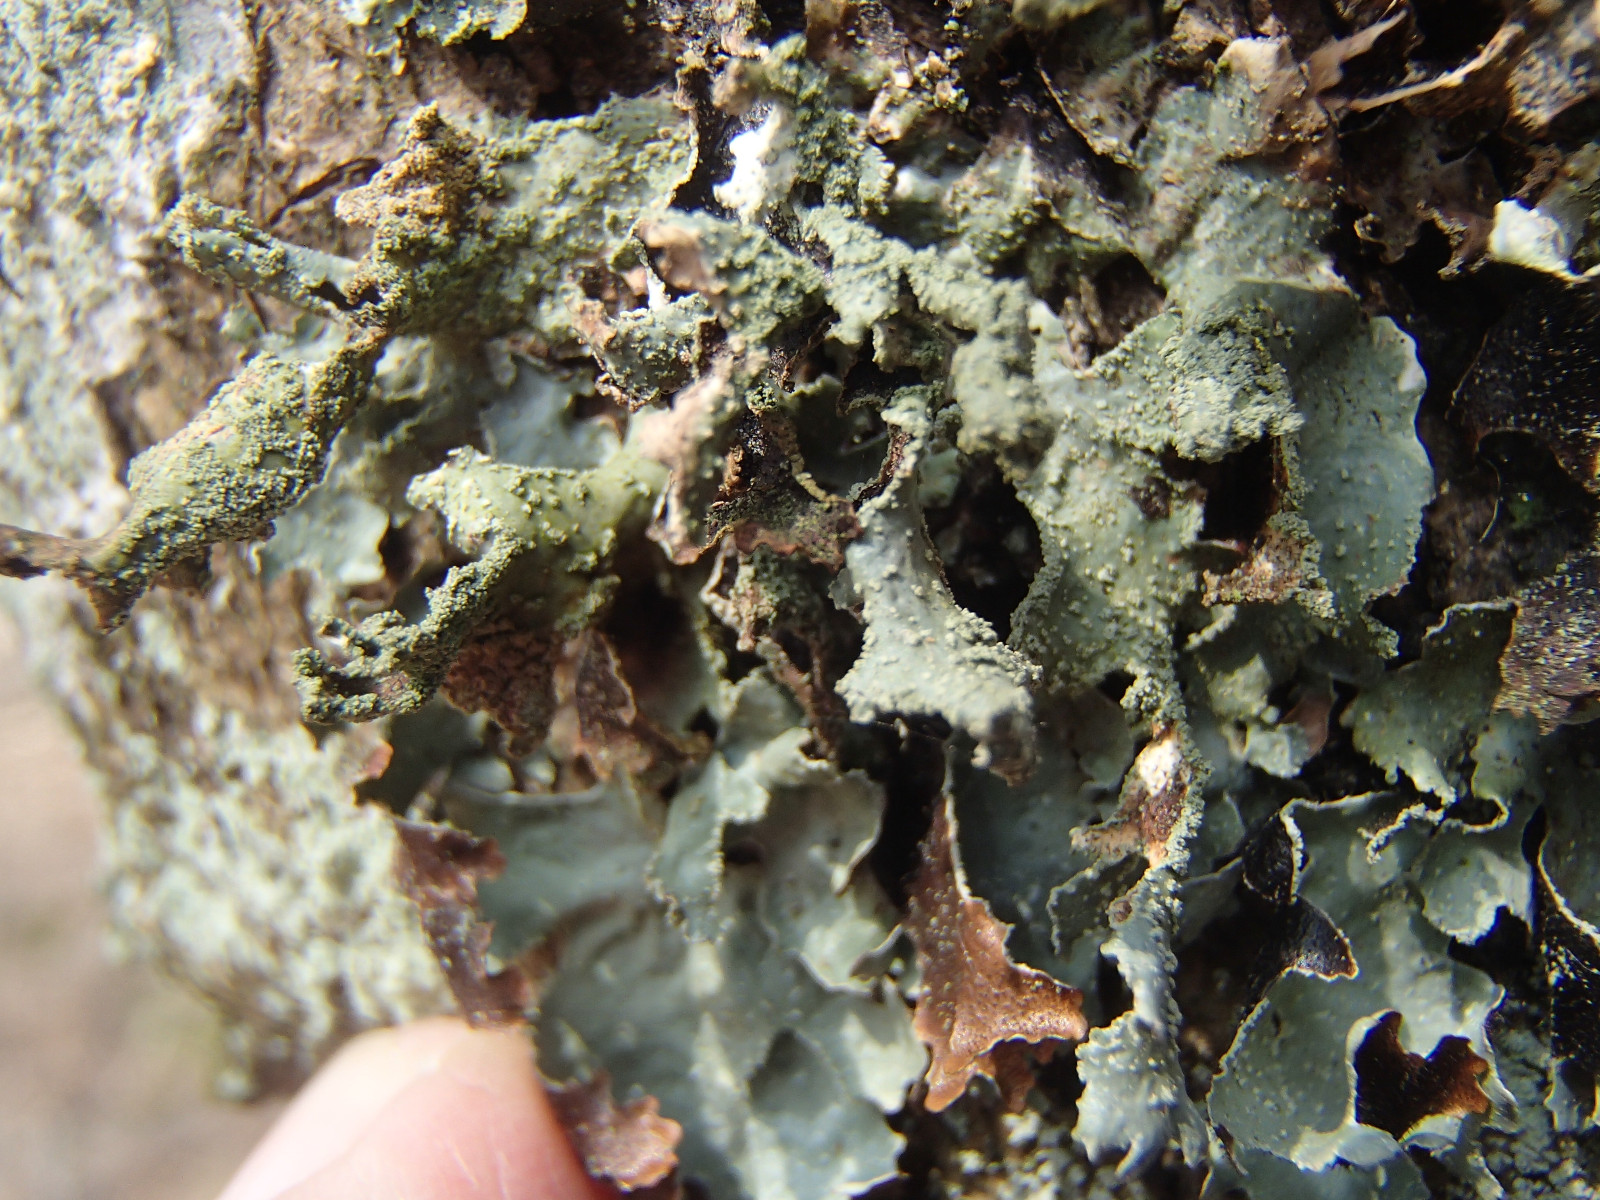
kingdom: Fungi
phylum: Ascomycota
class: Lecanoromycetes
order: Lecanorales
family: Parmeliaceae
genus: Parmelia
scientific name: Parmelia submontana
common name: langlobet skållav
